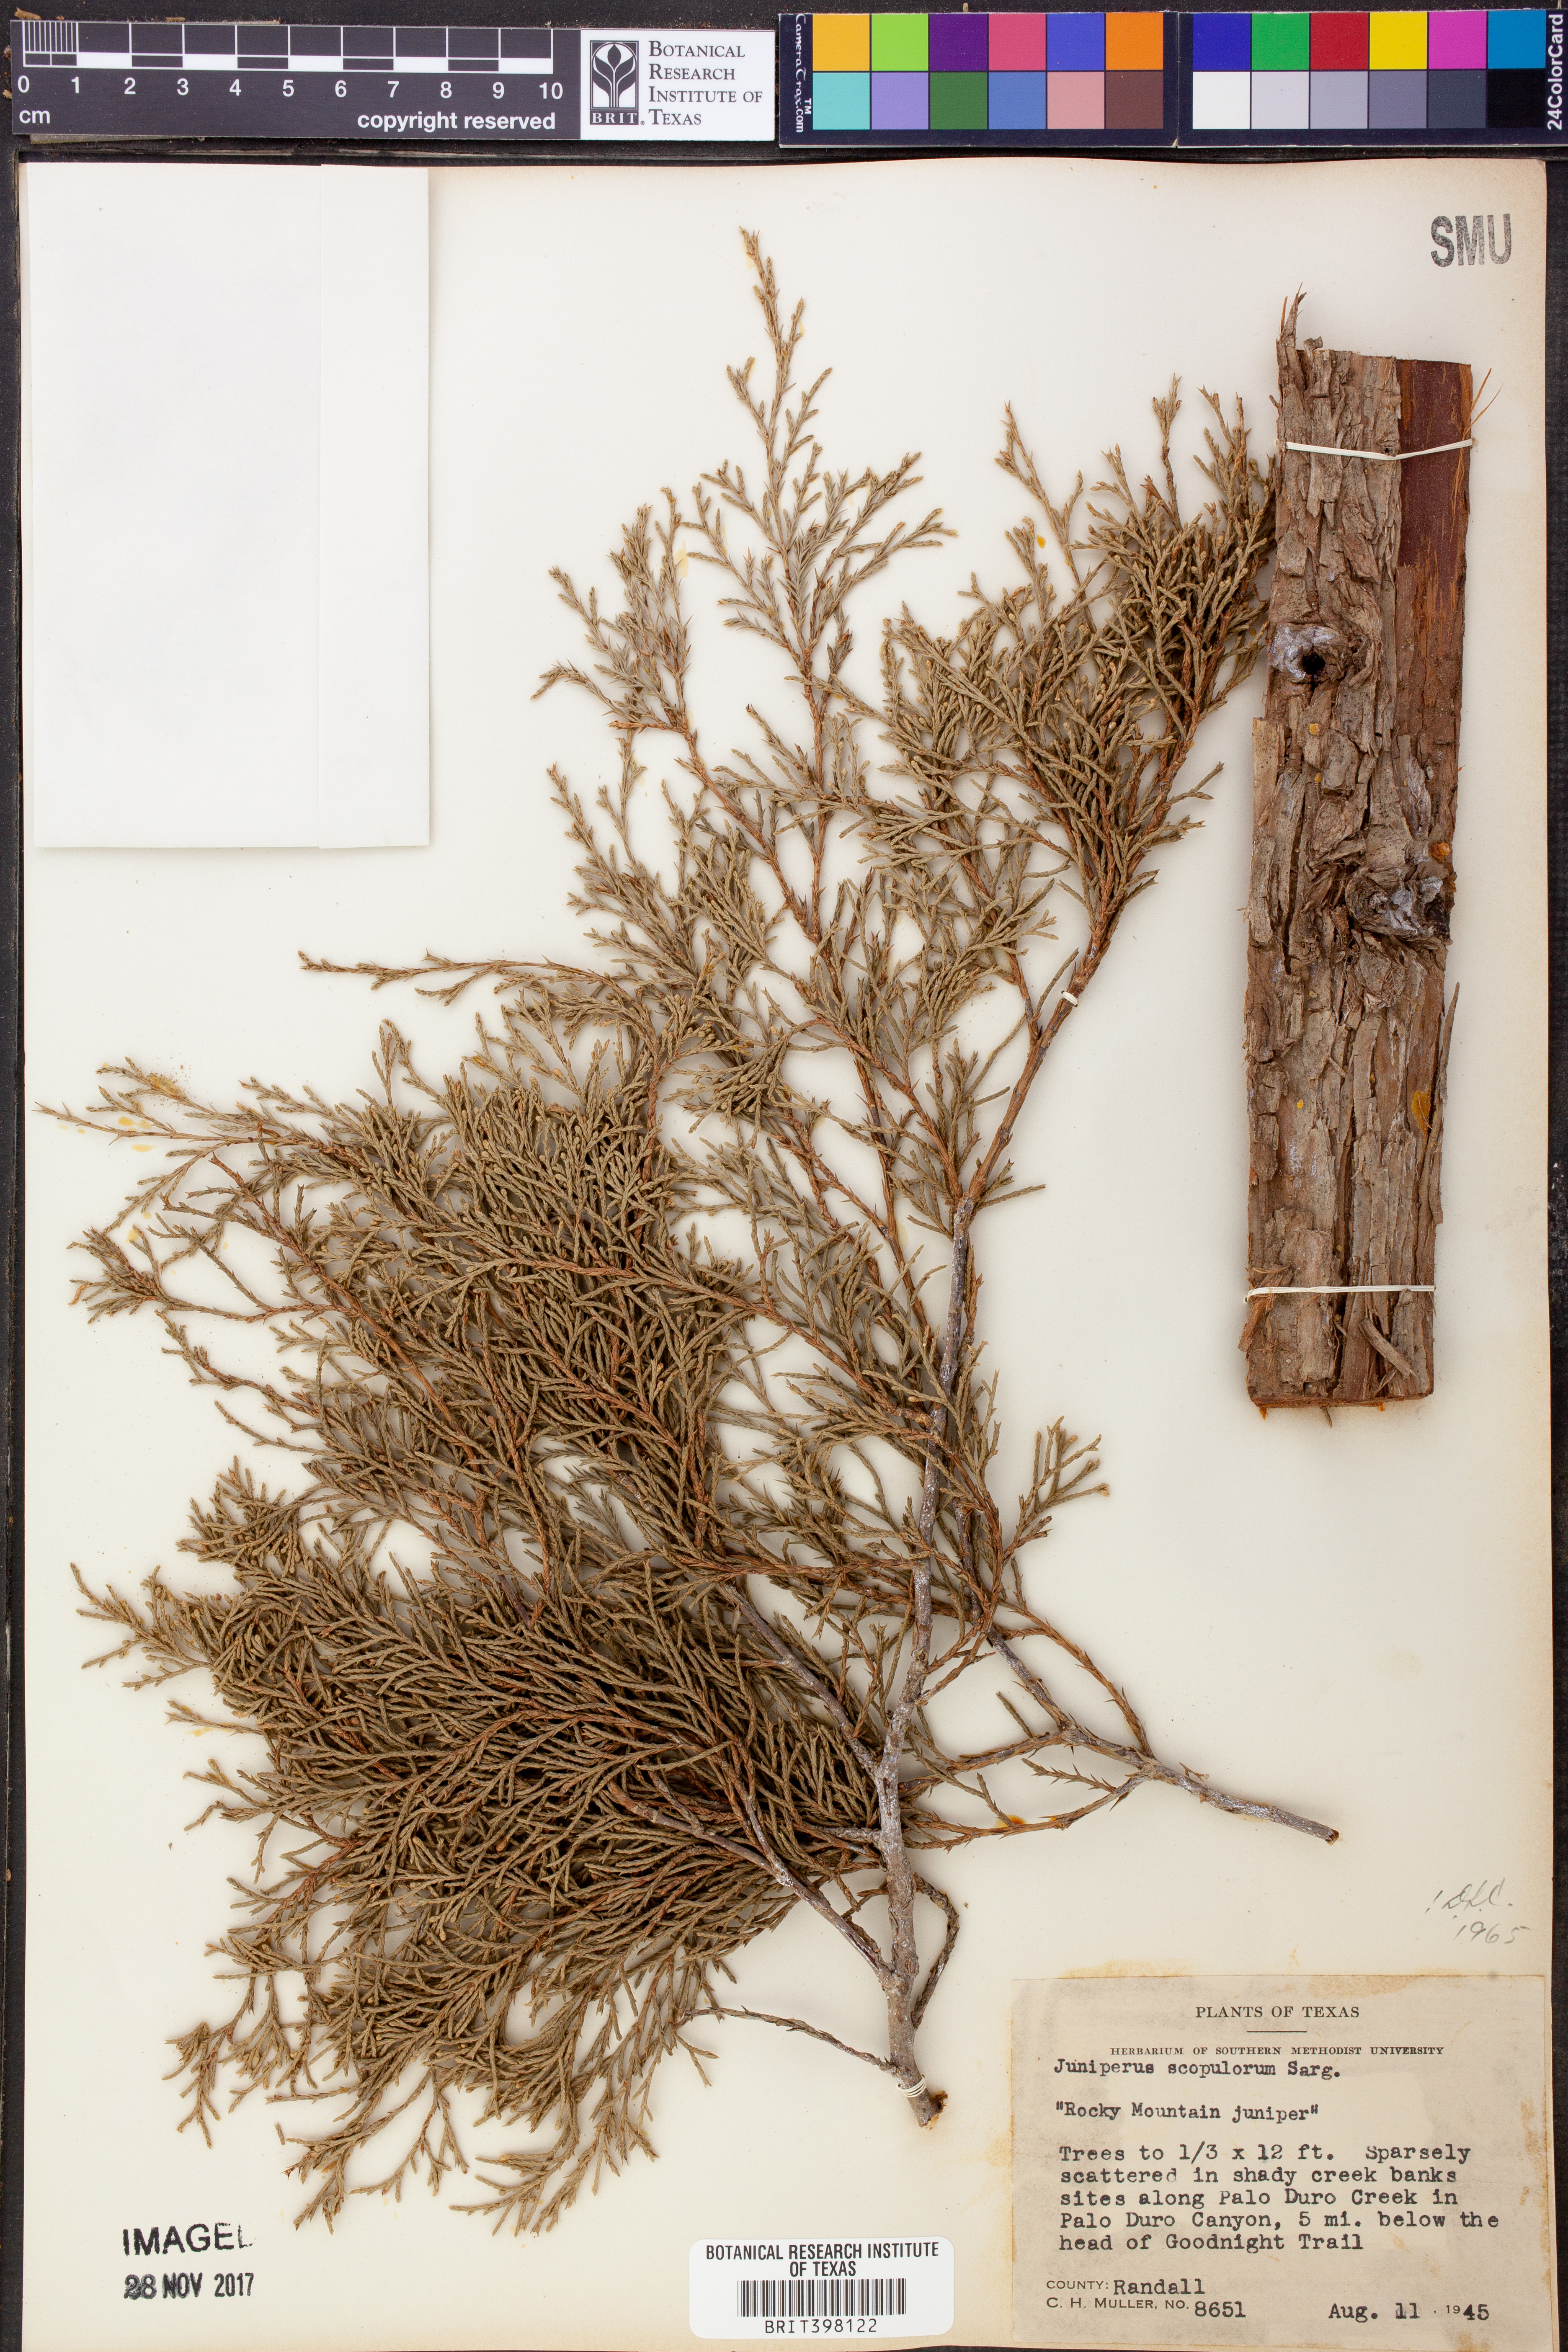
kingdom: Plantae
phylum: Tracheophyta
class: Pinopsida
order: Pinales
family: Cupressaceae
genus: Juniperus
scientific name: Juniperus scopulorum
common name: Rocky mountain juniper
